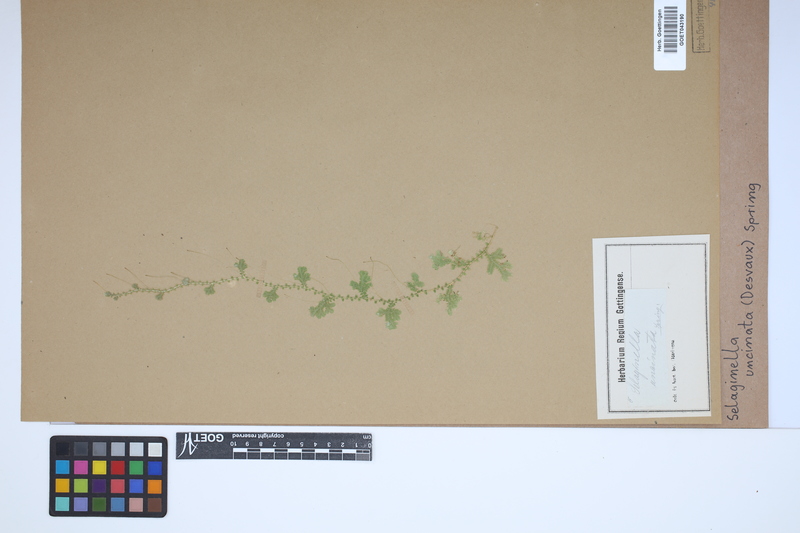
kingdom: Plantae
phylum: Tracheophyta
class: Lycopodiopsida
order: Selaginellales
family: Selaginellaceae
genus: Selaginella
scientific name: Selaginella uncinata
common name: Blue spikemoss
